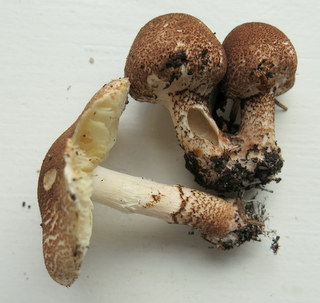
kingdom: Fungi
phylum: Basidiomycota
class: Agaricomycetes
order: Agaricales
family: Agaricaceae
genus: Lepiota
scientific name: Lepiota brunneoincarnata
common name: brunrød parasolhat
